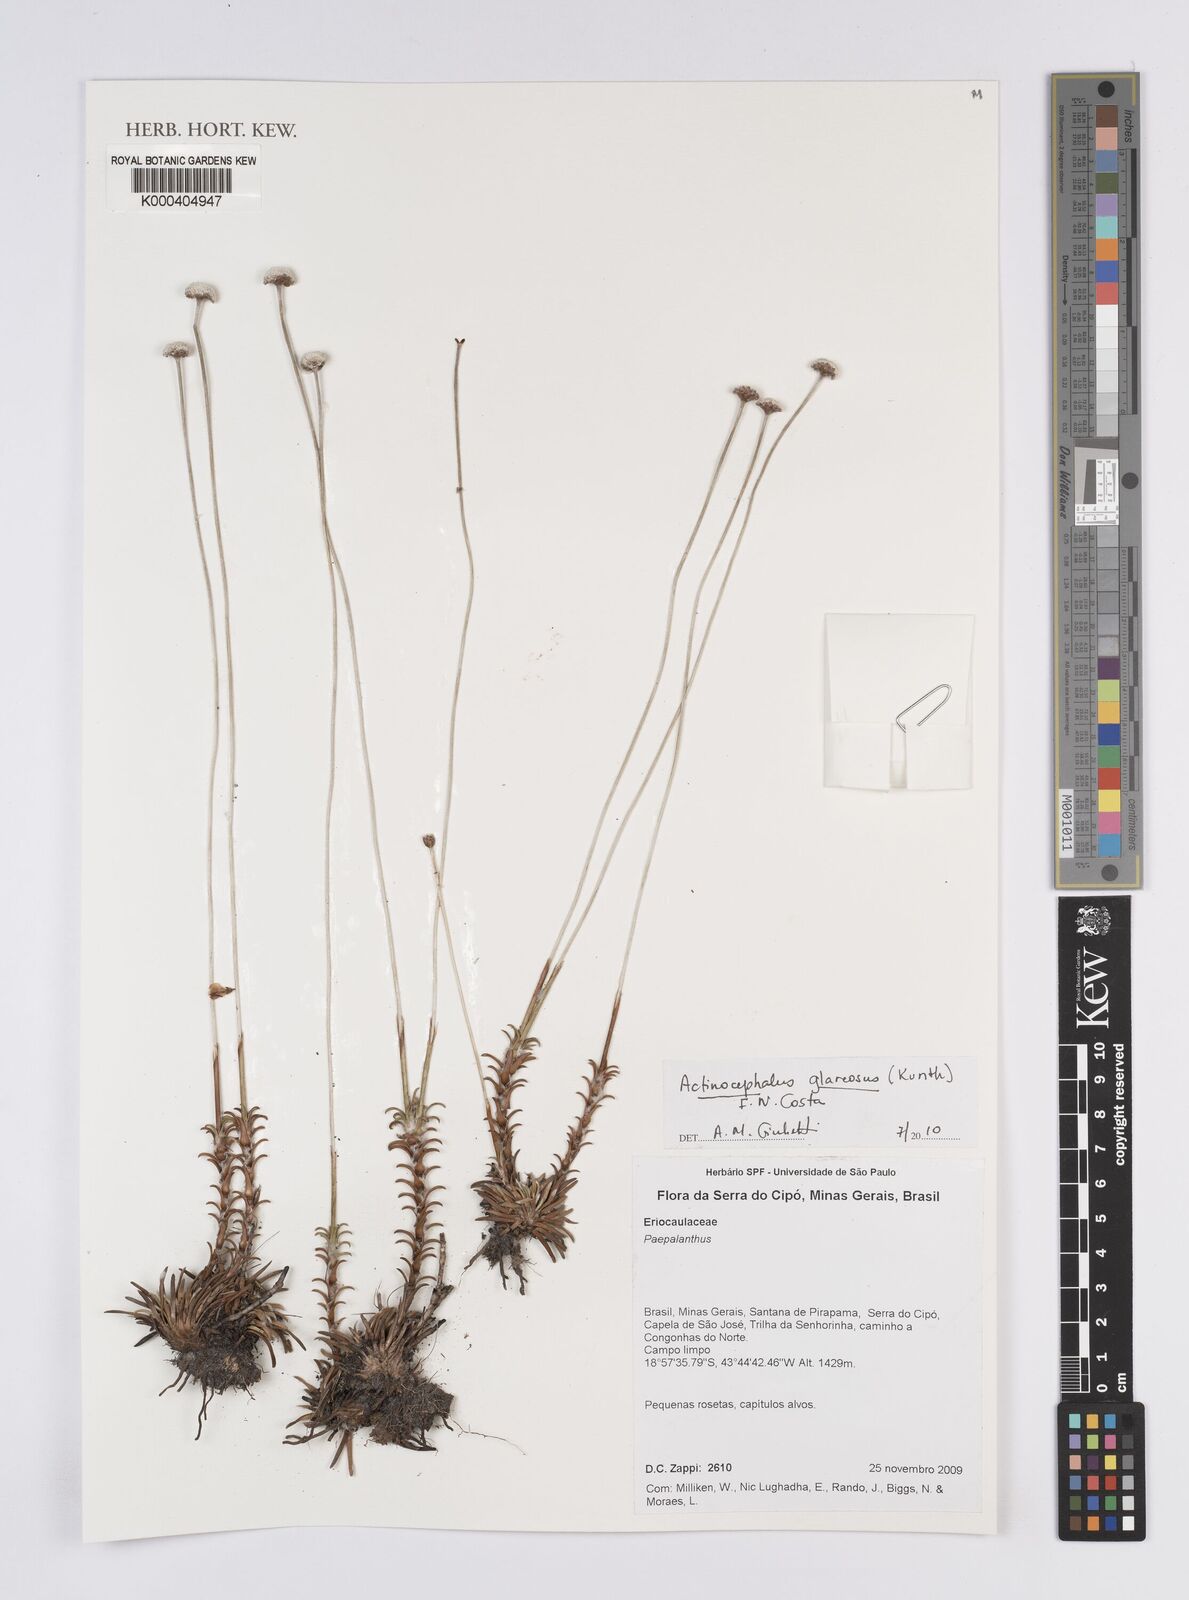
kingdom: Plantae
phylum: Tracheophyta
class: Liliopsida
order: Poales
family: Eriocaulaceae
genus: Paepalanthus
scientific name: Paepalanthus glareosus
